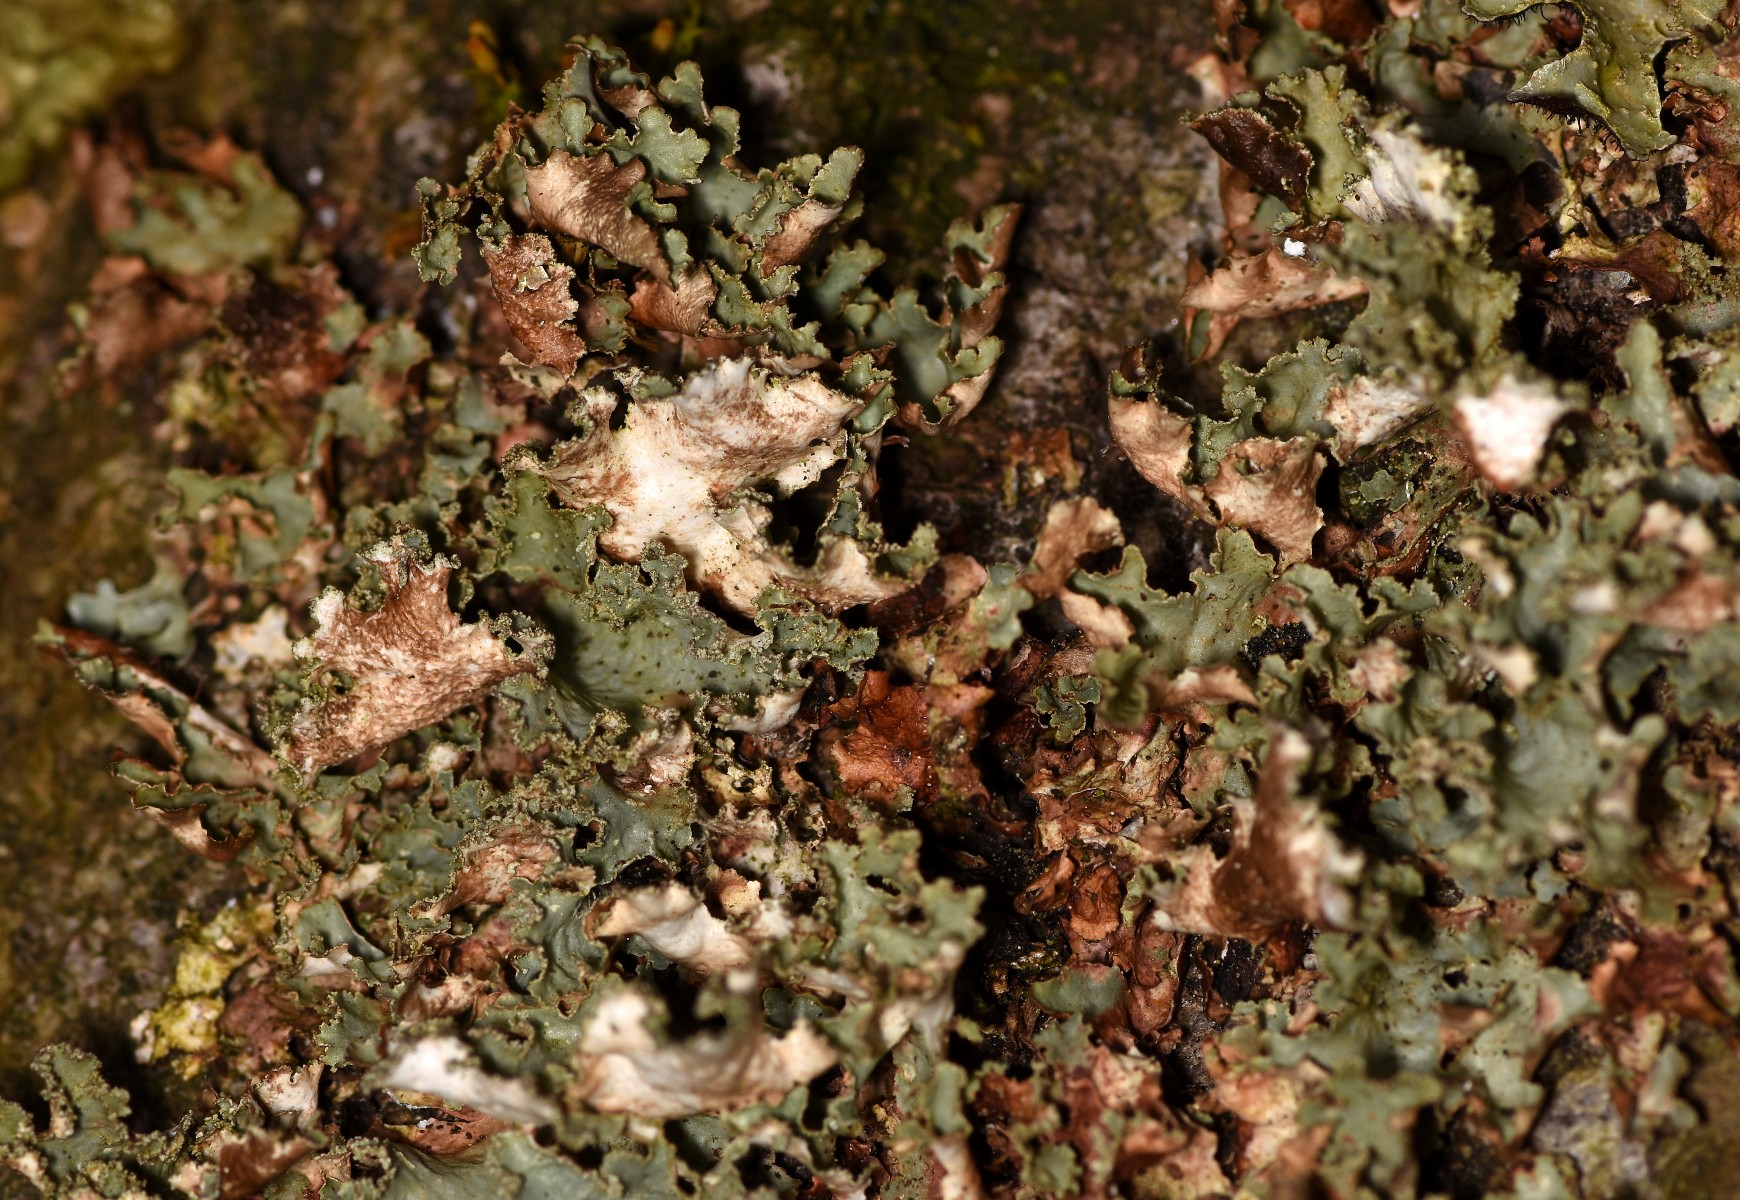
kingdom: Fungi
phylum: Ascomycota
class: Lecanoromycetes
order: Lecanorales
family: Parmeliaceae
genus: Platismatia
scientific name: Platismatia glauca
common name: blågrå papirlav
